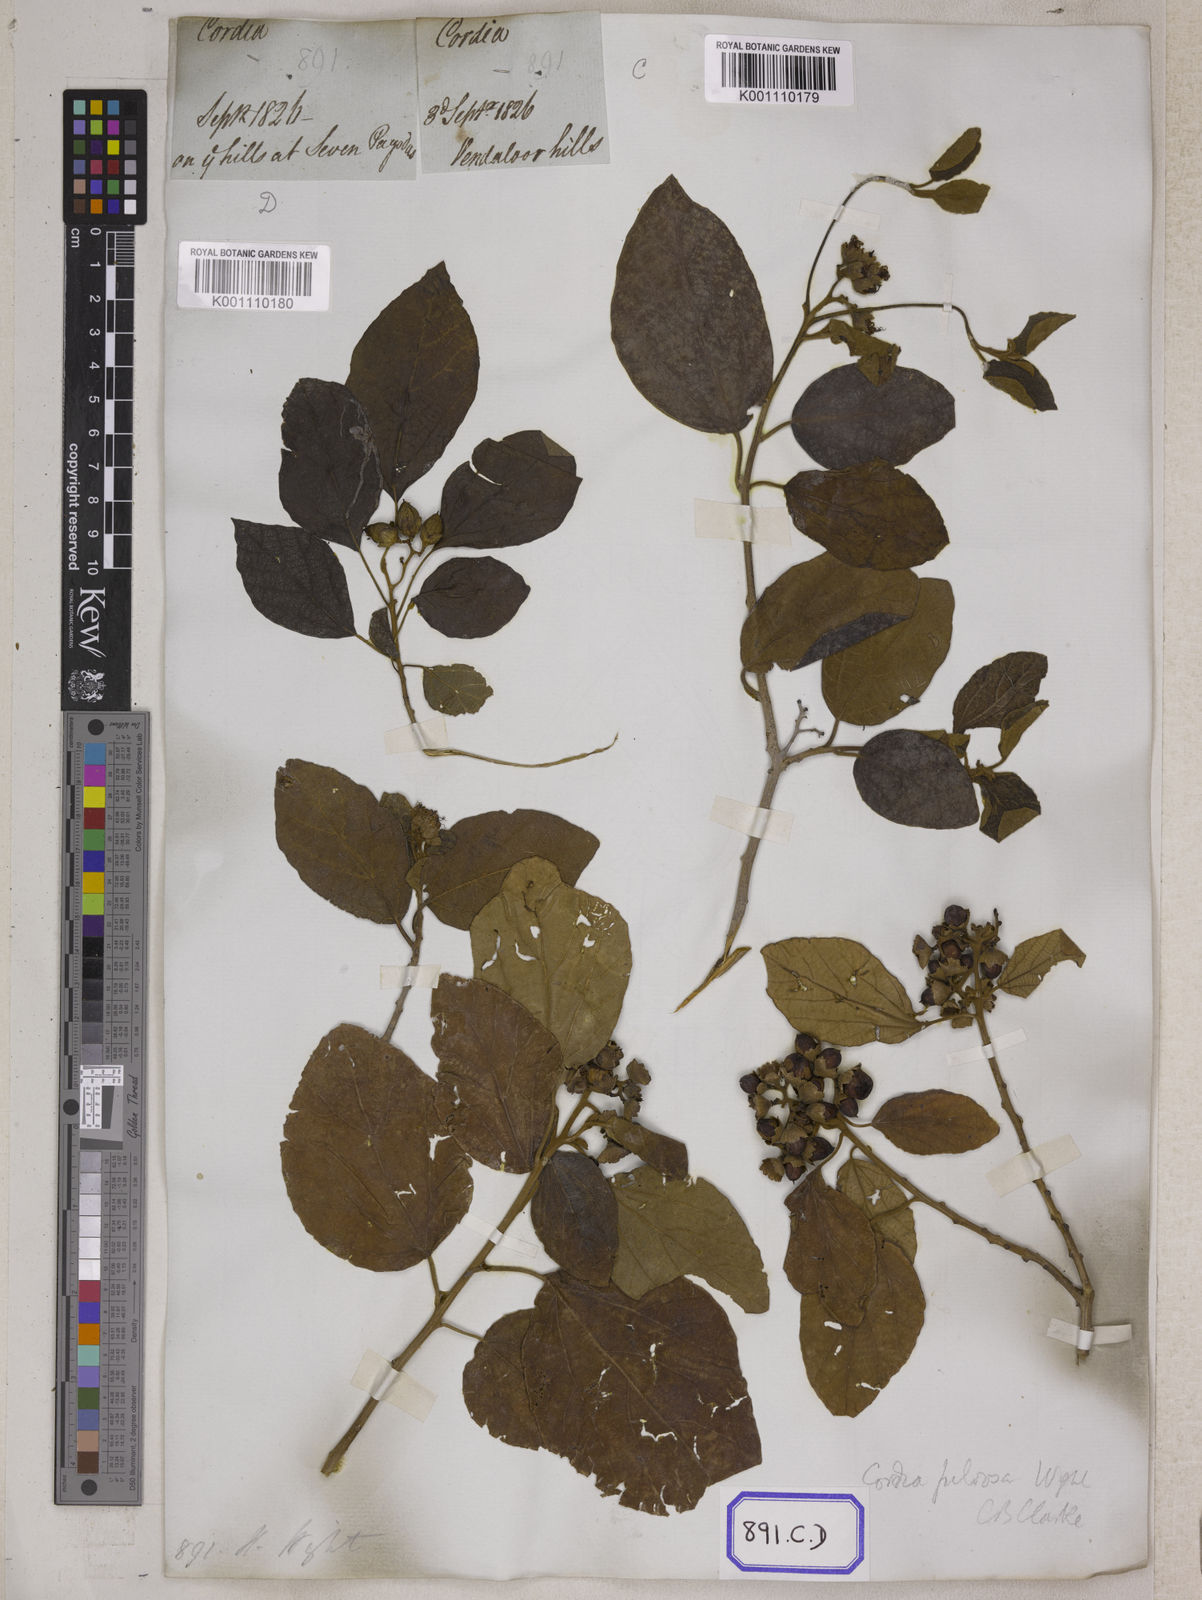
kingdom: Plantae
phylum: Tracheophyta
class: Magnoliopsida
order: Boraginales
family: Cordiaceae
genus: Cordia
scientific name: Cordia monoica
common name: Snot berry
